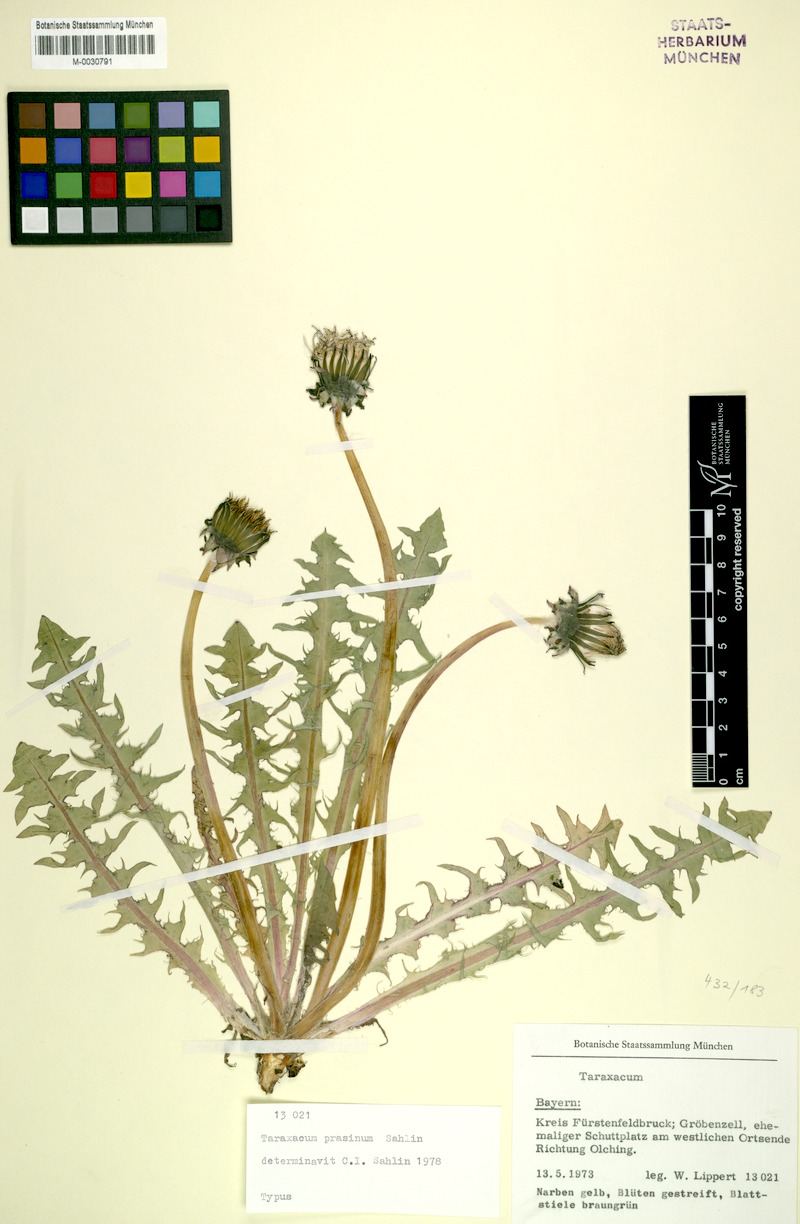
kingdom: Plantae
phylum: Tracheophyta
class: Magnoliopsida
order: Asterales
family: Asteraceae
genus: Taraxacum
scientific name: Taraxacum prasinum
